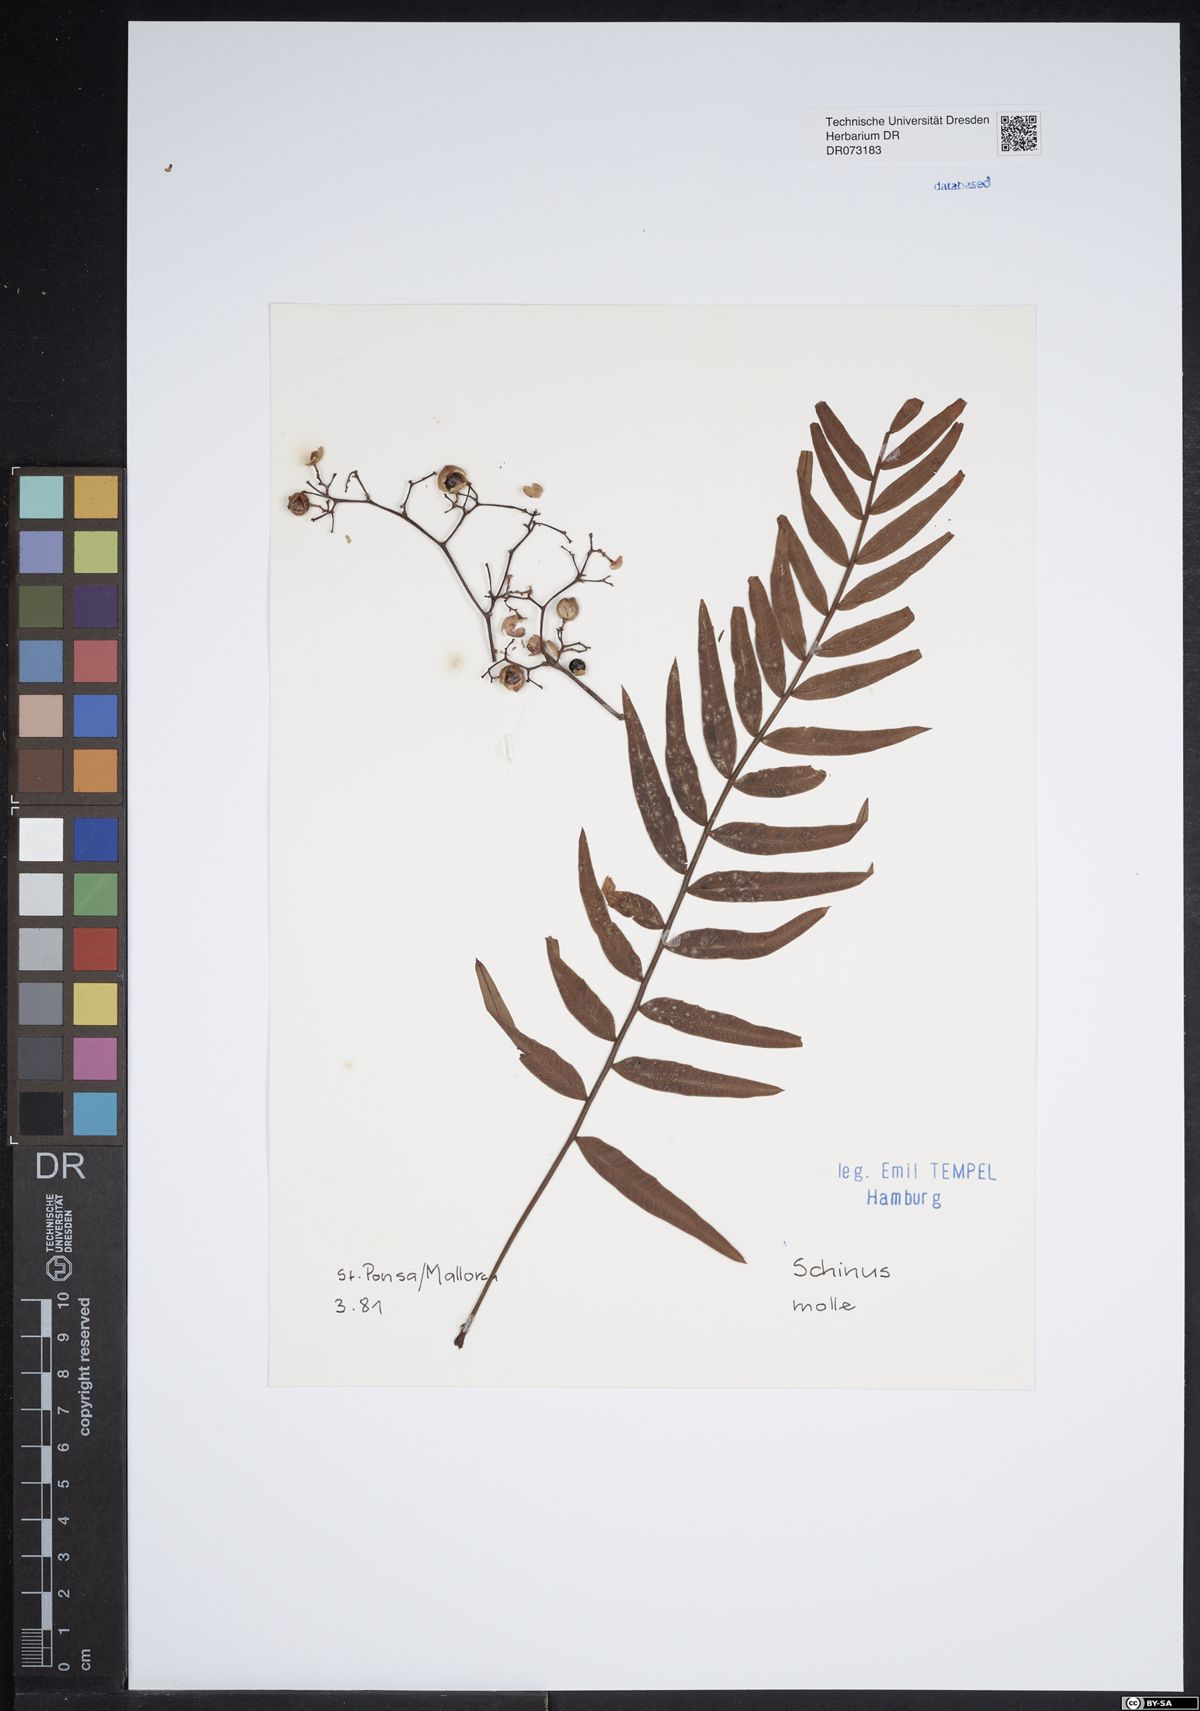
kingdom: Plantae
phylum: Tracheophyta
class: Magnoliopsida
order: Sapindales
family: Anacardiaceae
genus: Schinus
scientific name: Schinus molle
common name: Peruvian peppertree
